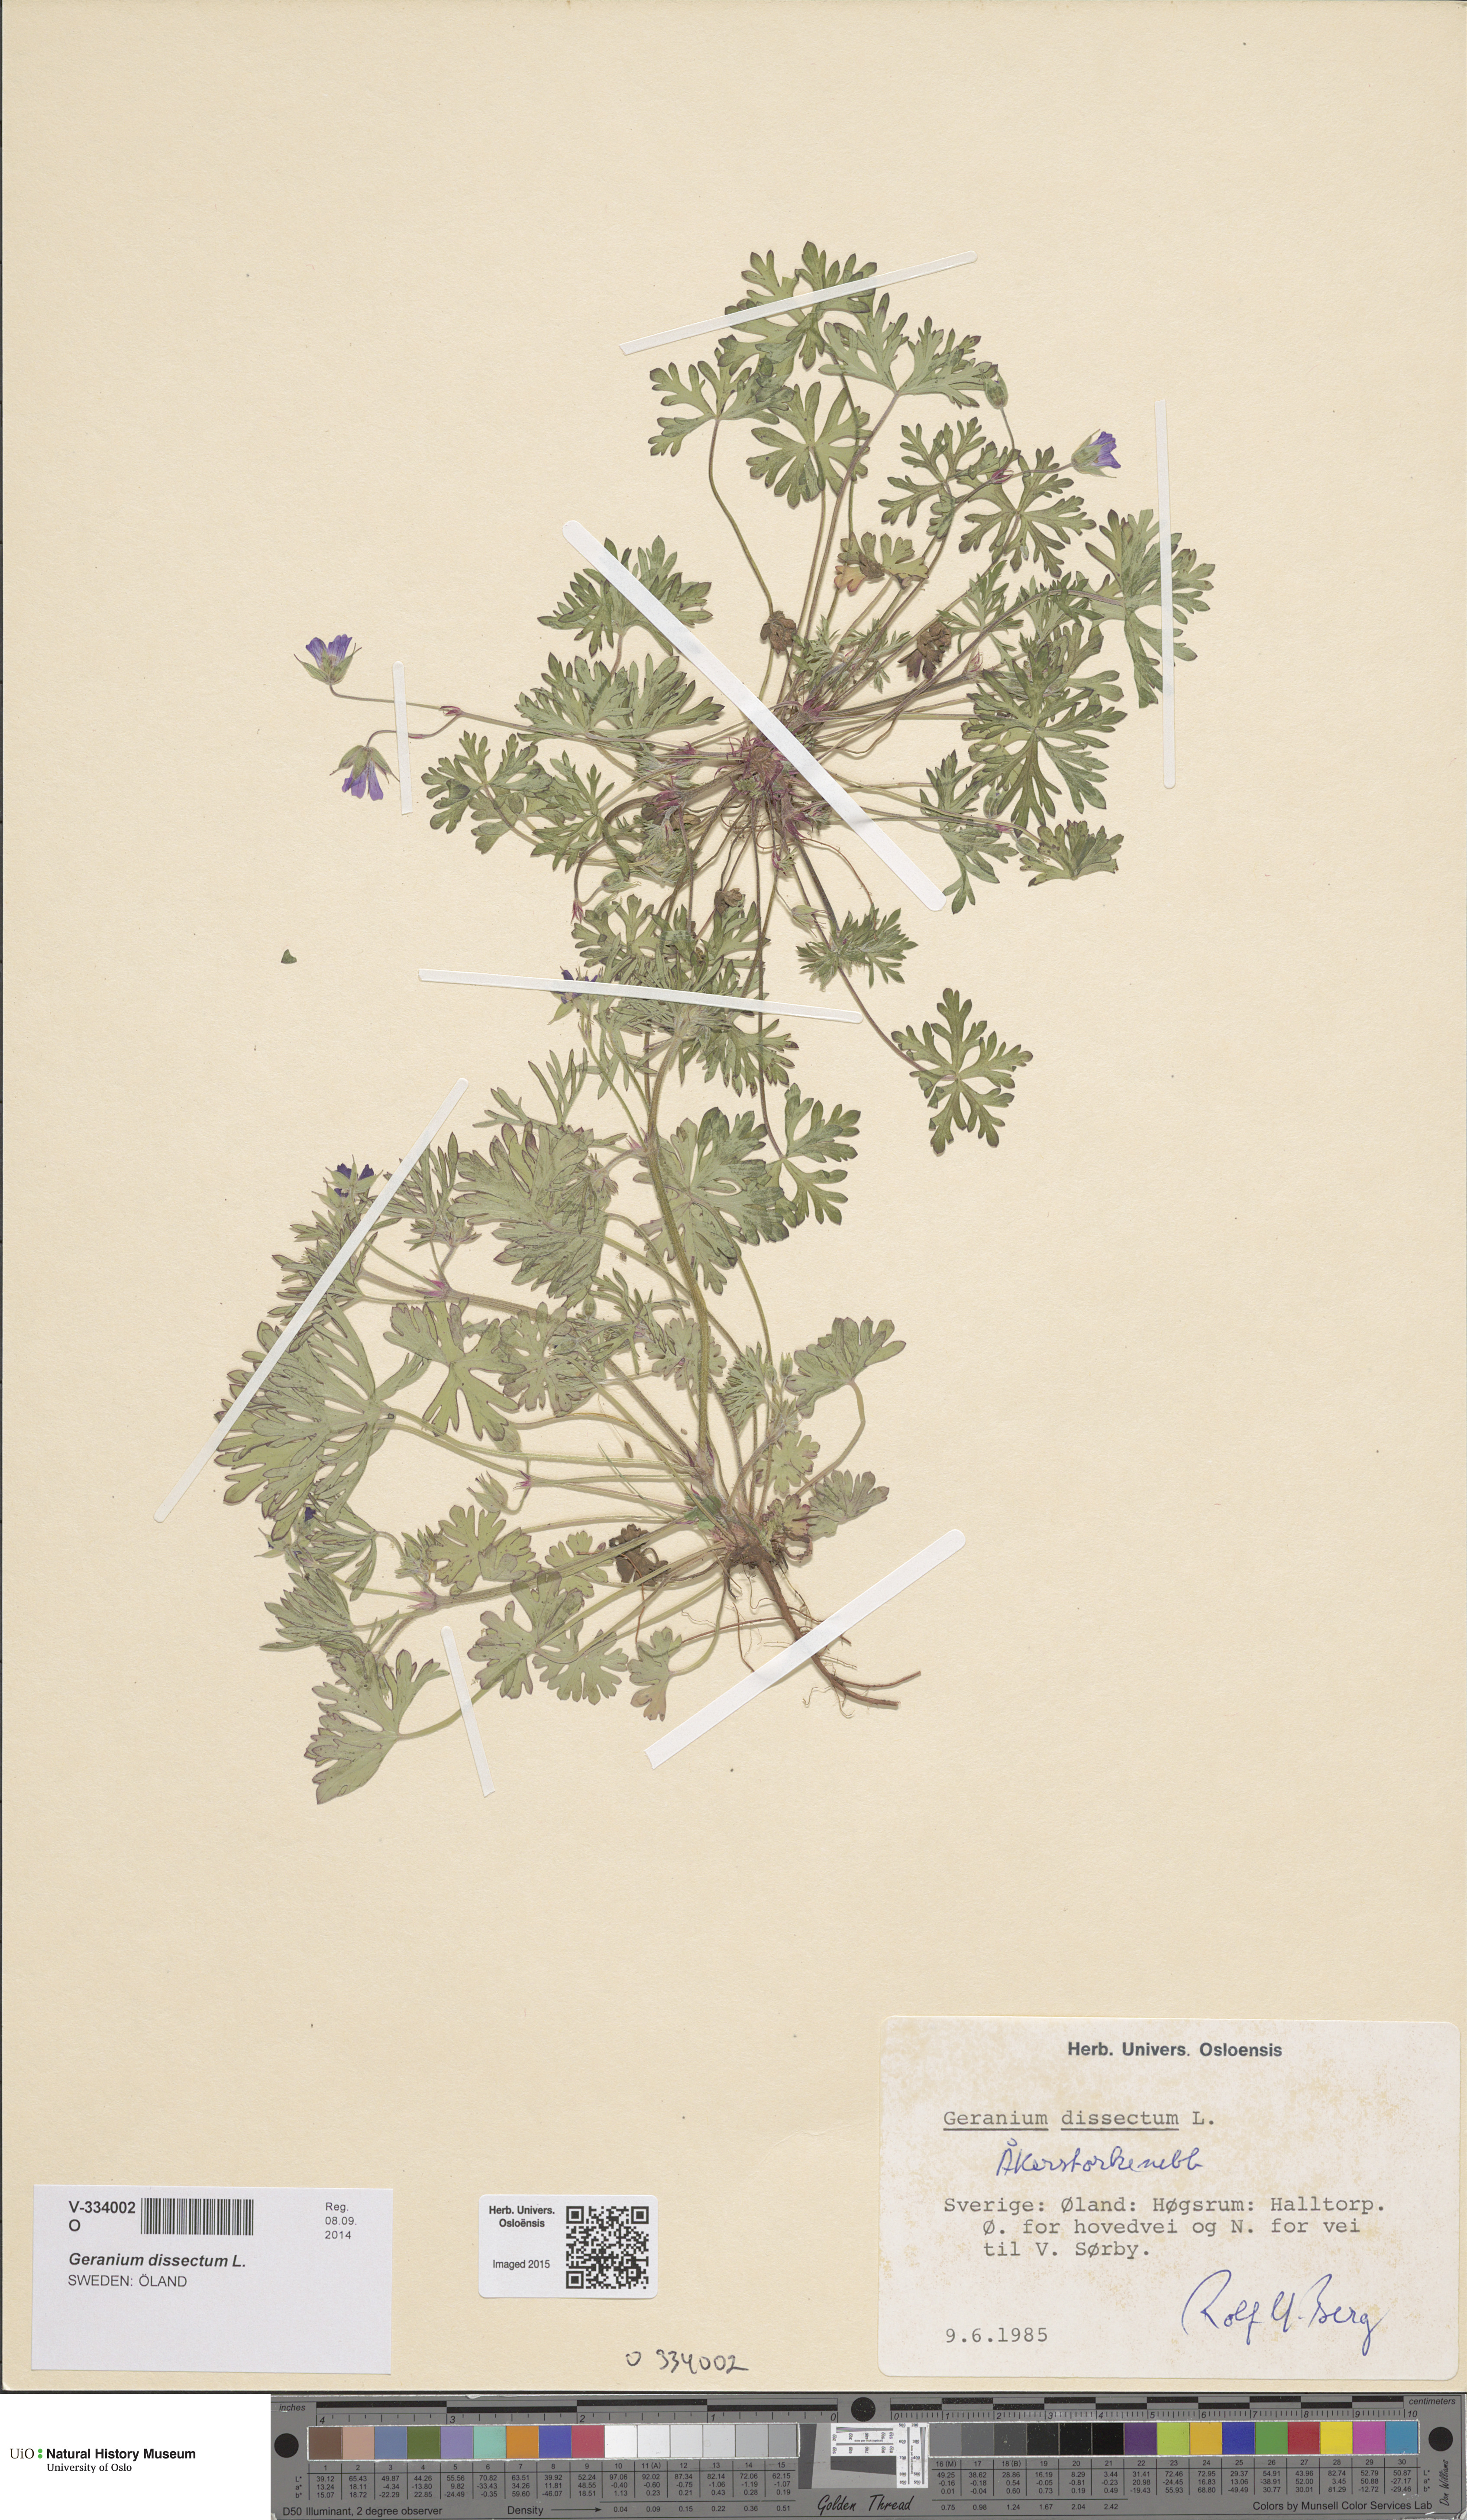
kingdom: Plantae
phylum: Tracheophyta
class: Magnoliopsida
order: Geraniales
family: Geraniaceae
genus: Geranium
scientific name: Geranium pusillum
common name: Small geranium
